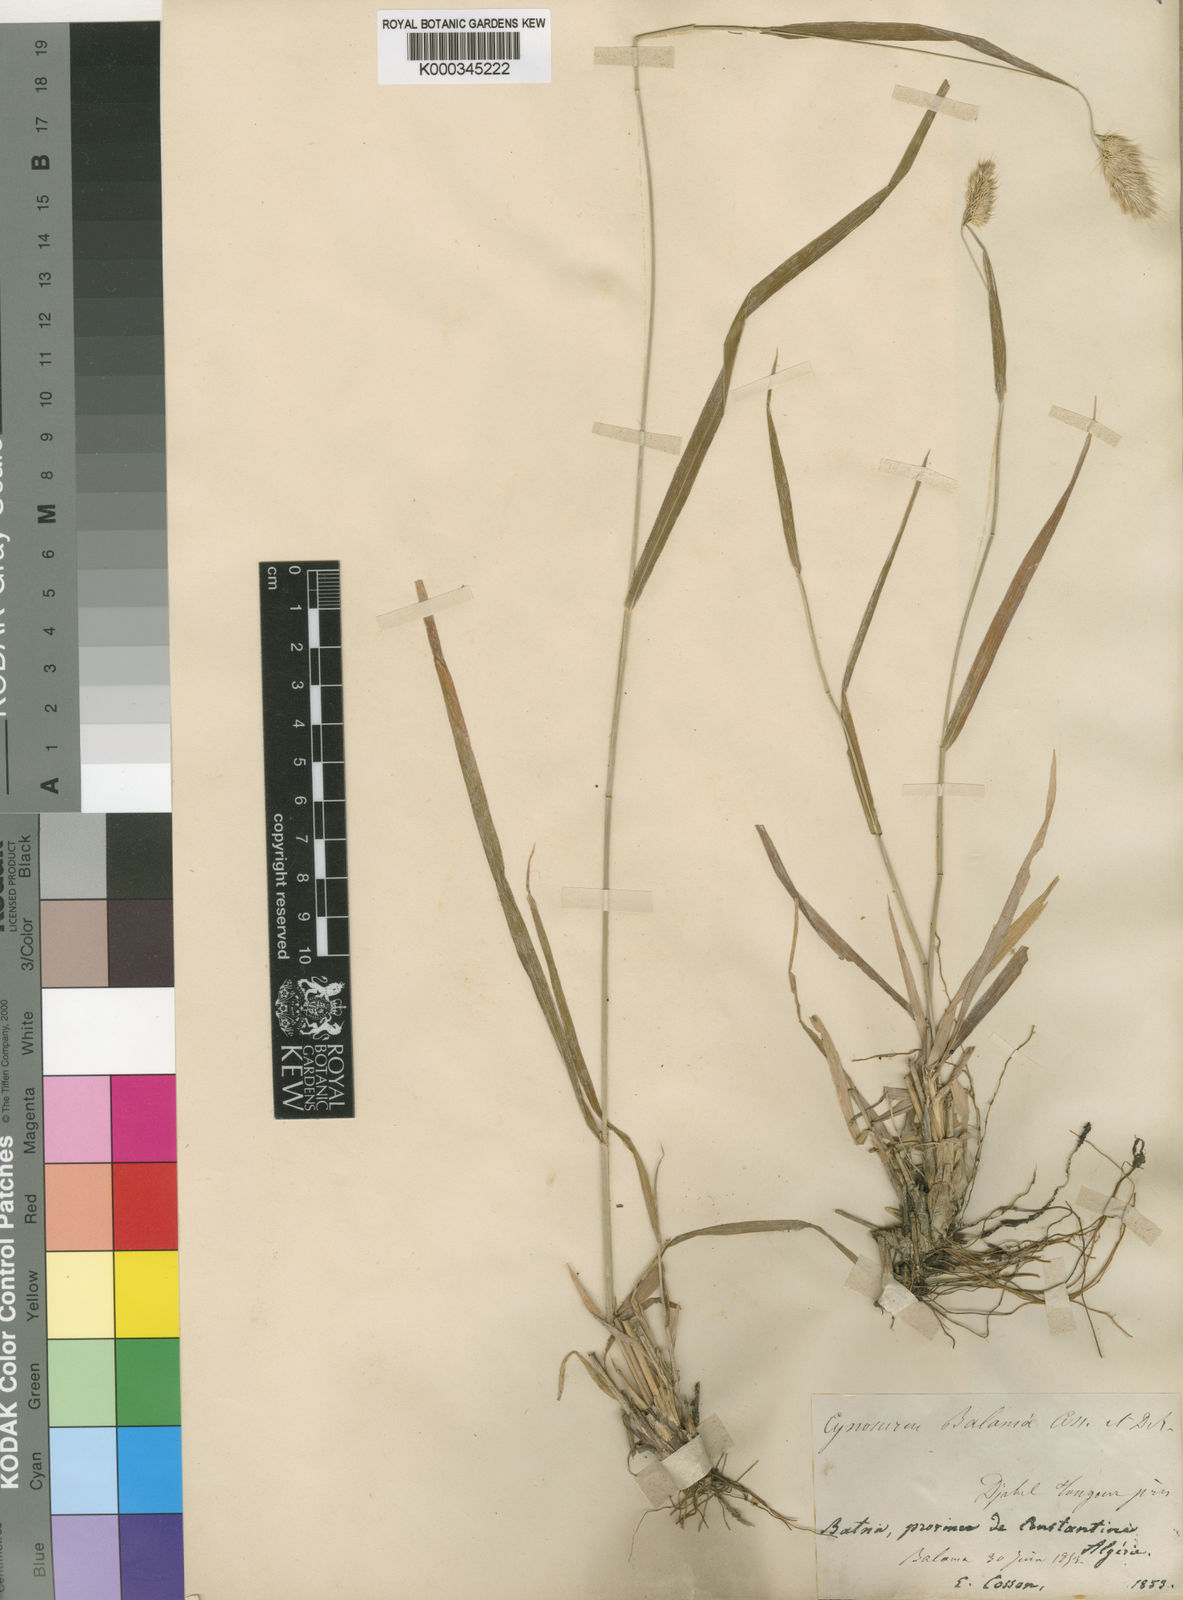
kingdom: Plantae
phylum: Tracheophyta
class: Liliopsida
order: Poales
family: Poaceae
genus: Cynosurus
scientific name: Cynosurus balansae
